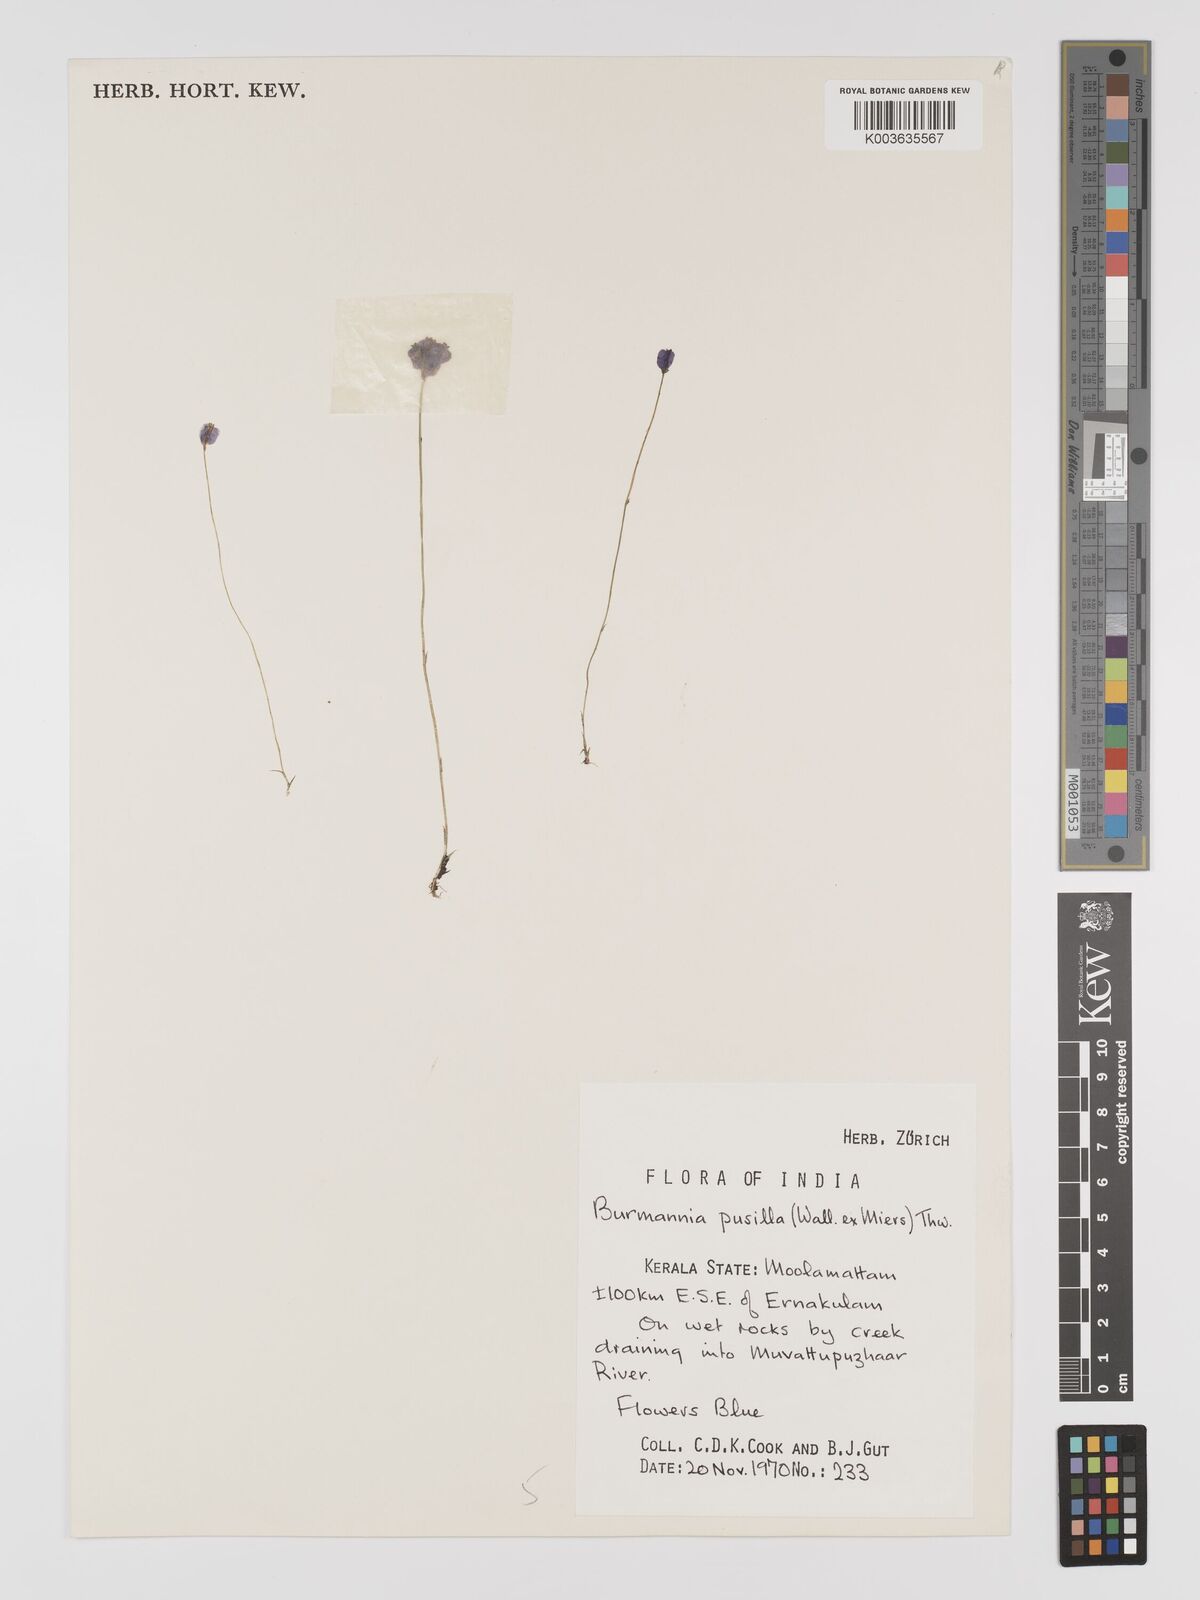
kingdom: Plantae
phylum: Tracheophyta
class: Liliopsida
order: Dioscoreales
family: Burmanniaceae
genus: Burmannia
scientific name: Burmannia pusilla
